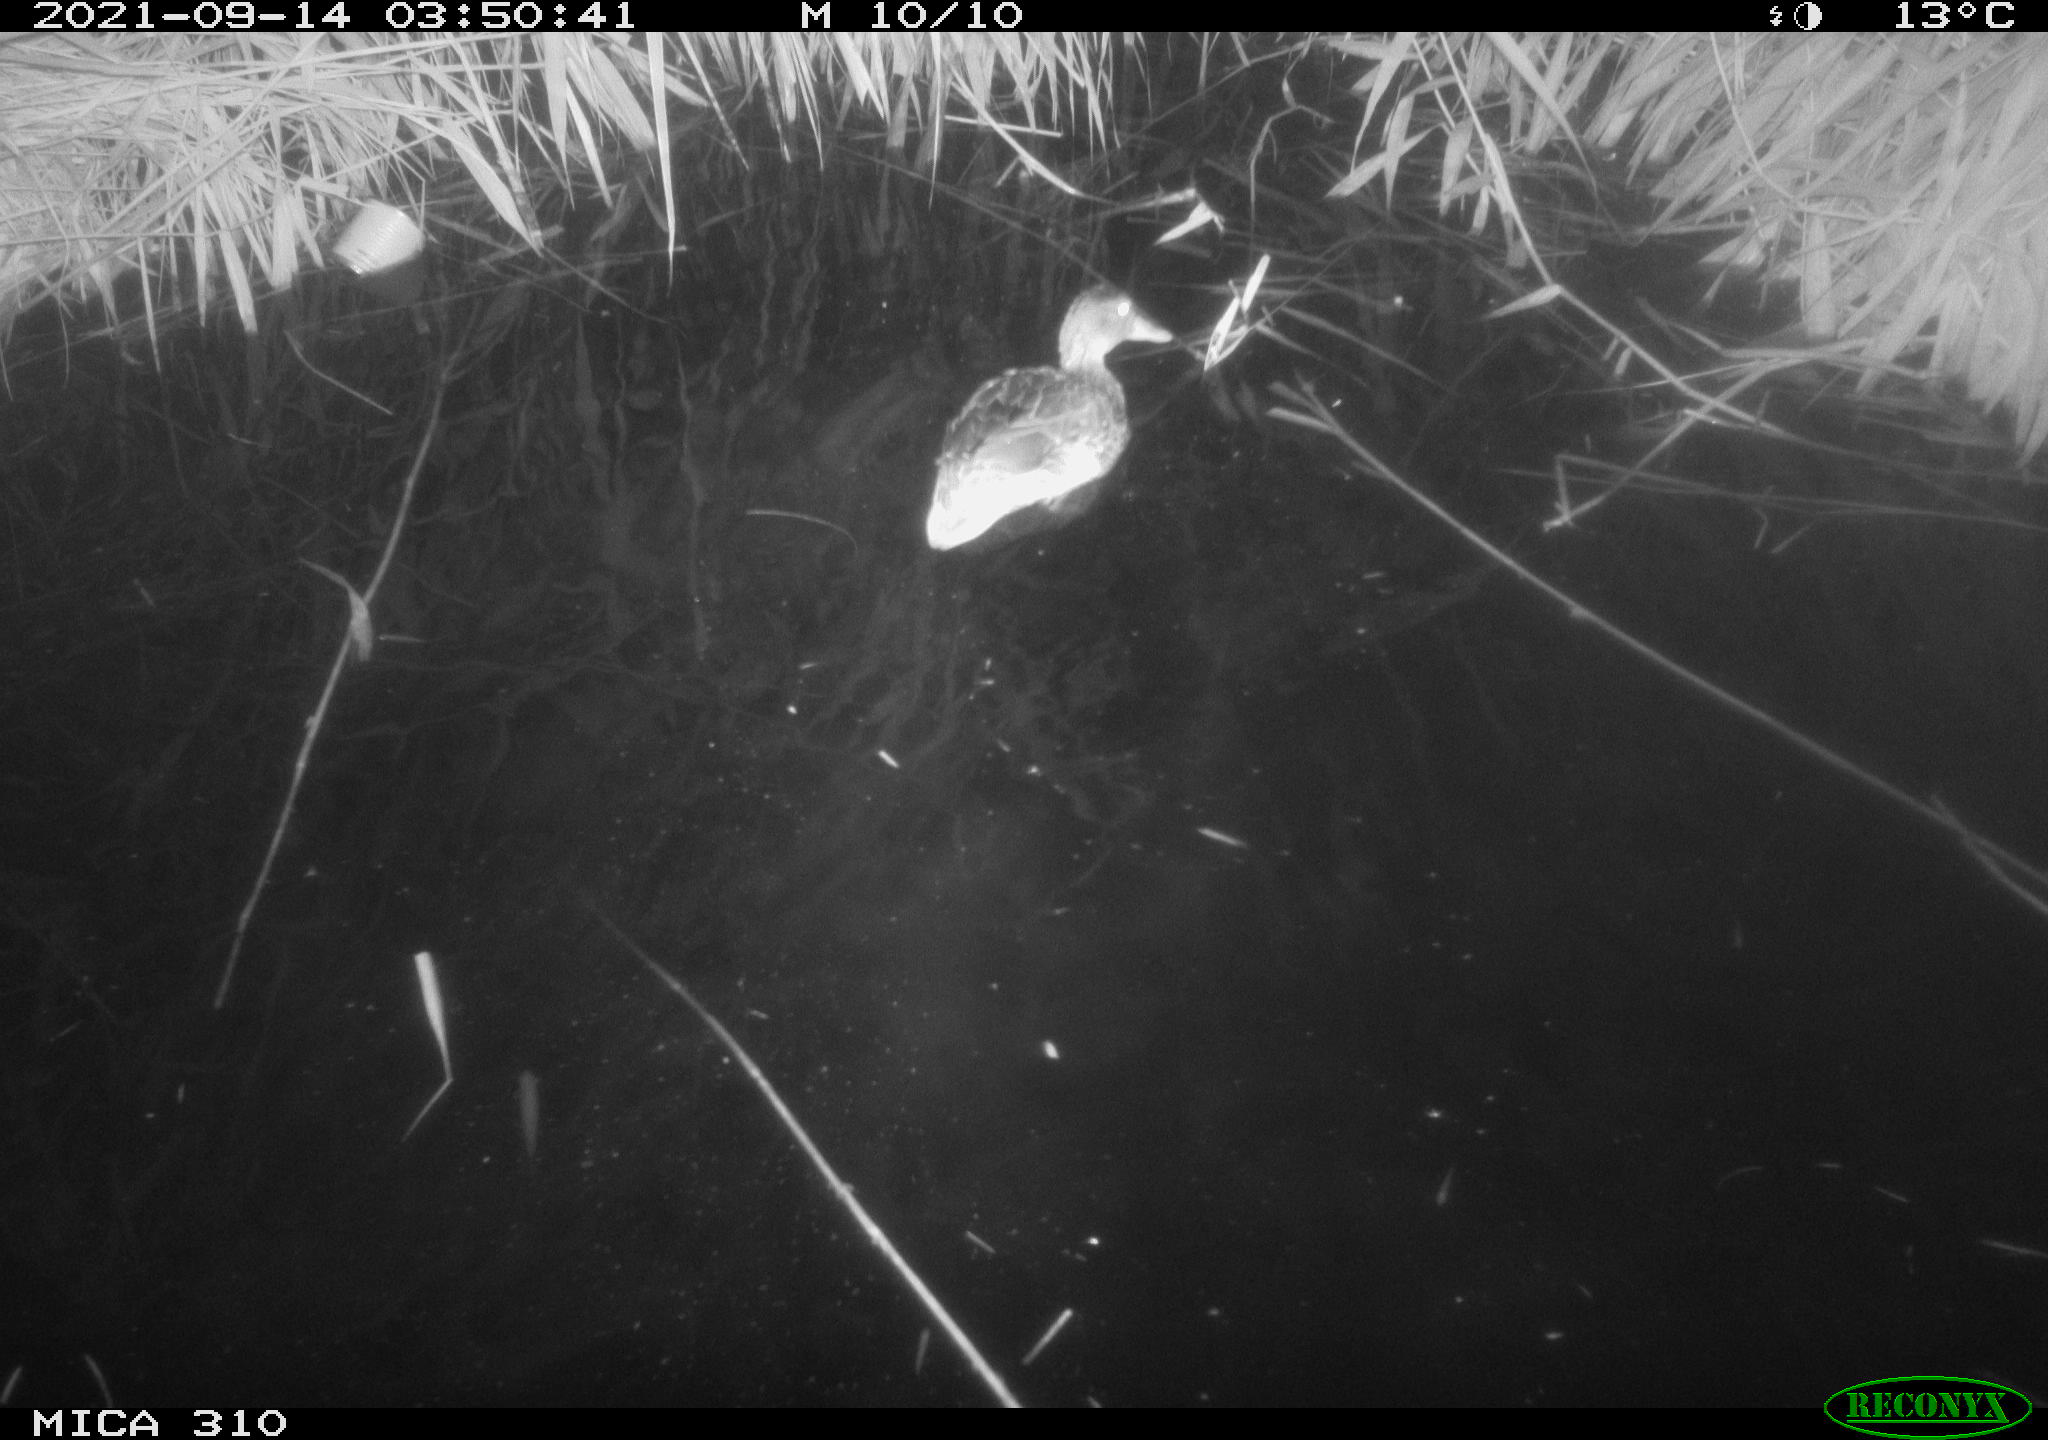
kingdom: Animalia
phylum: Chordata
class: Aves
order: Anseriformes
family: Anatidae
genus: Mareca
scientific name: Mareca strepera
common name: Gadwall
